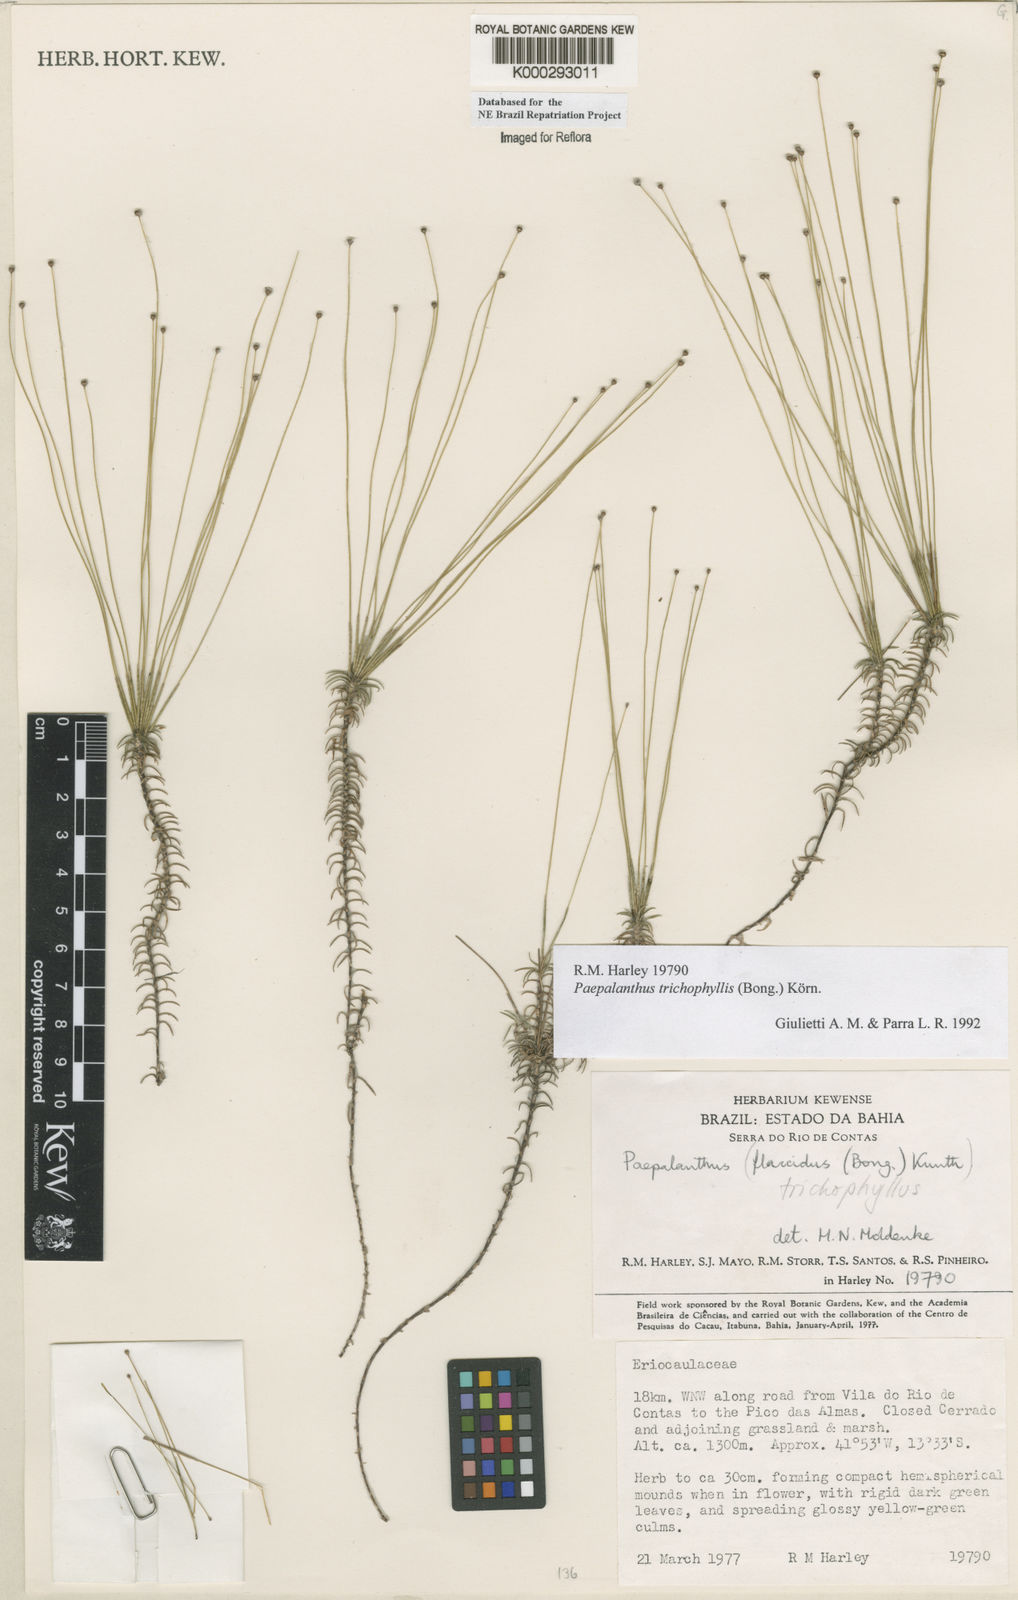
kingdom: Plantae
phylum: Tracheophyta
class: Liliopsida
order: Poales
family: Eriocaulaceae
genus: Paepalanthus
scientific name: Paepalanthus
